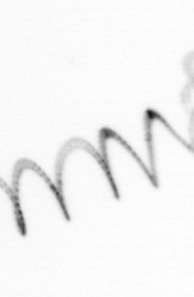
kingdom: Chromista
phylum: Ochrophyta
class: Bacillariophyceae
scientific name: Bacillariophyceae
